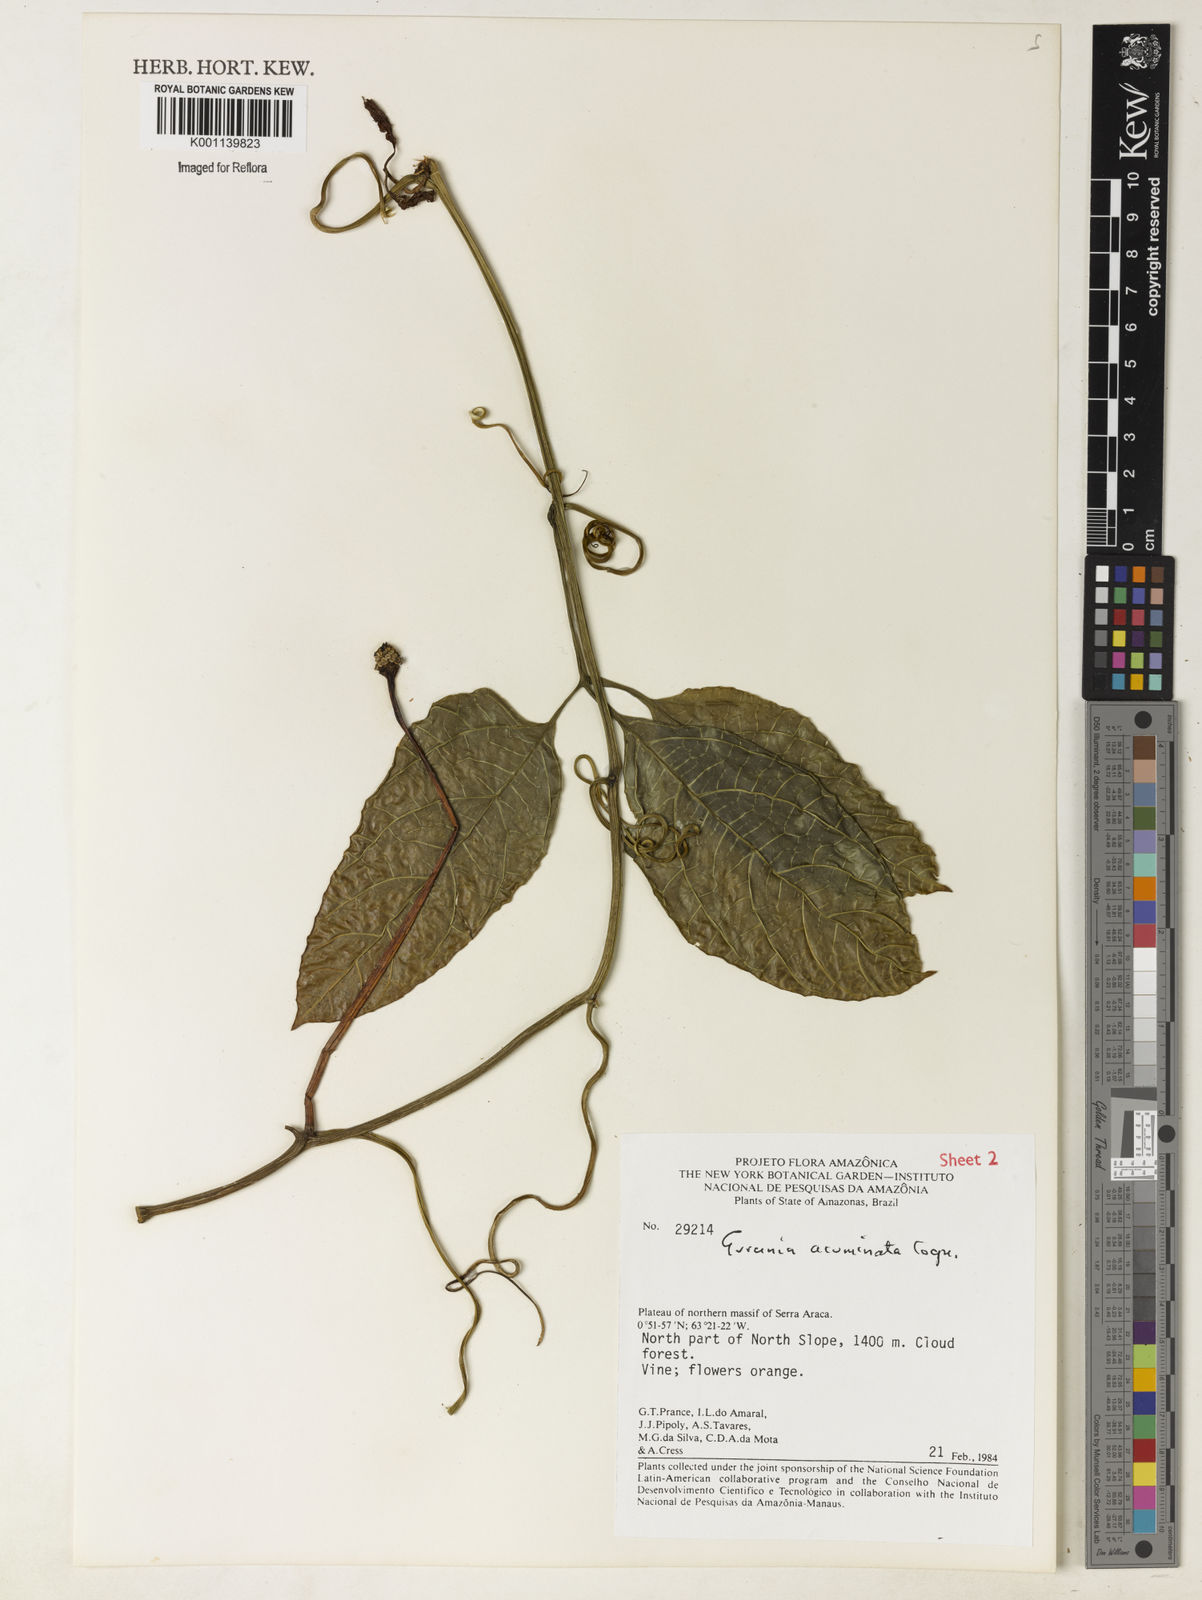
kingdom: Plantae
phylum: Tracheophyta
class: Magnoliopsida
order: Cucurbitales
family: Cucurbitaceae
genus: Gurania
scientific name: Gurania acuminata
